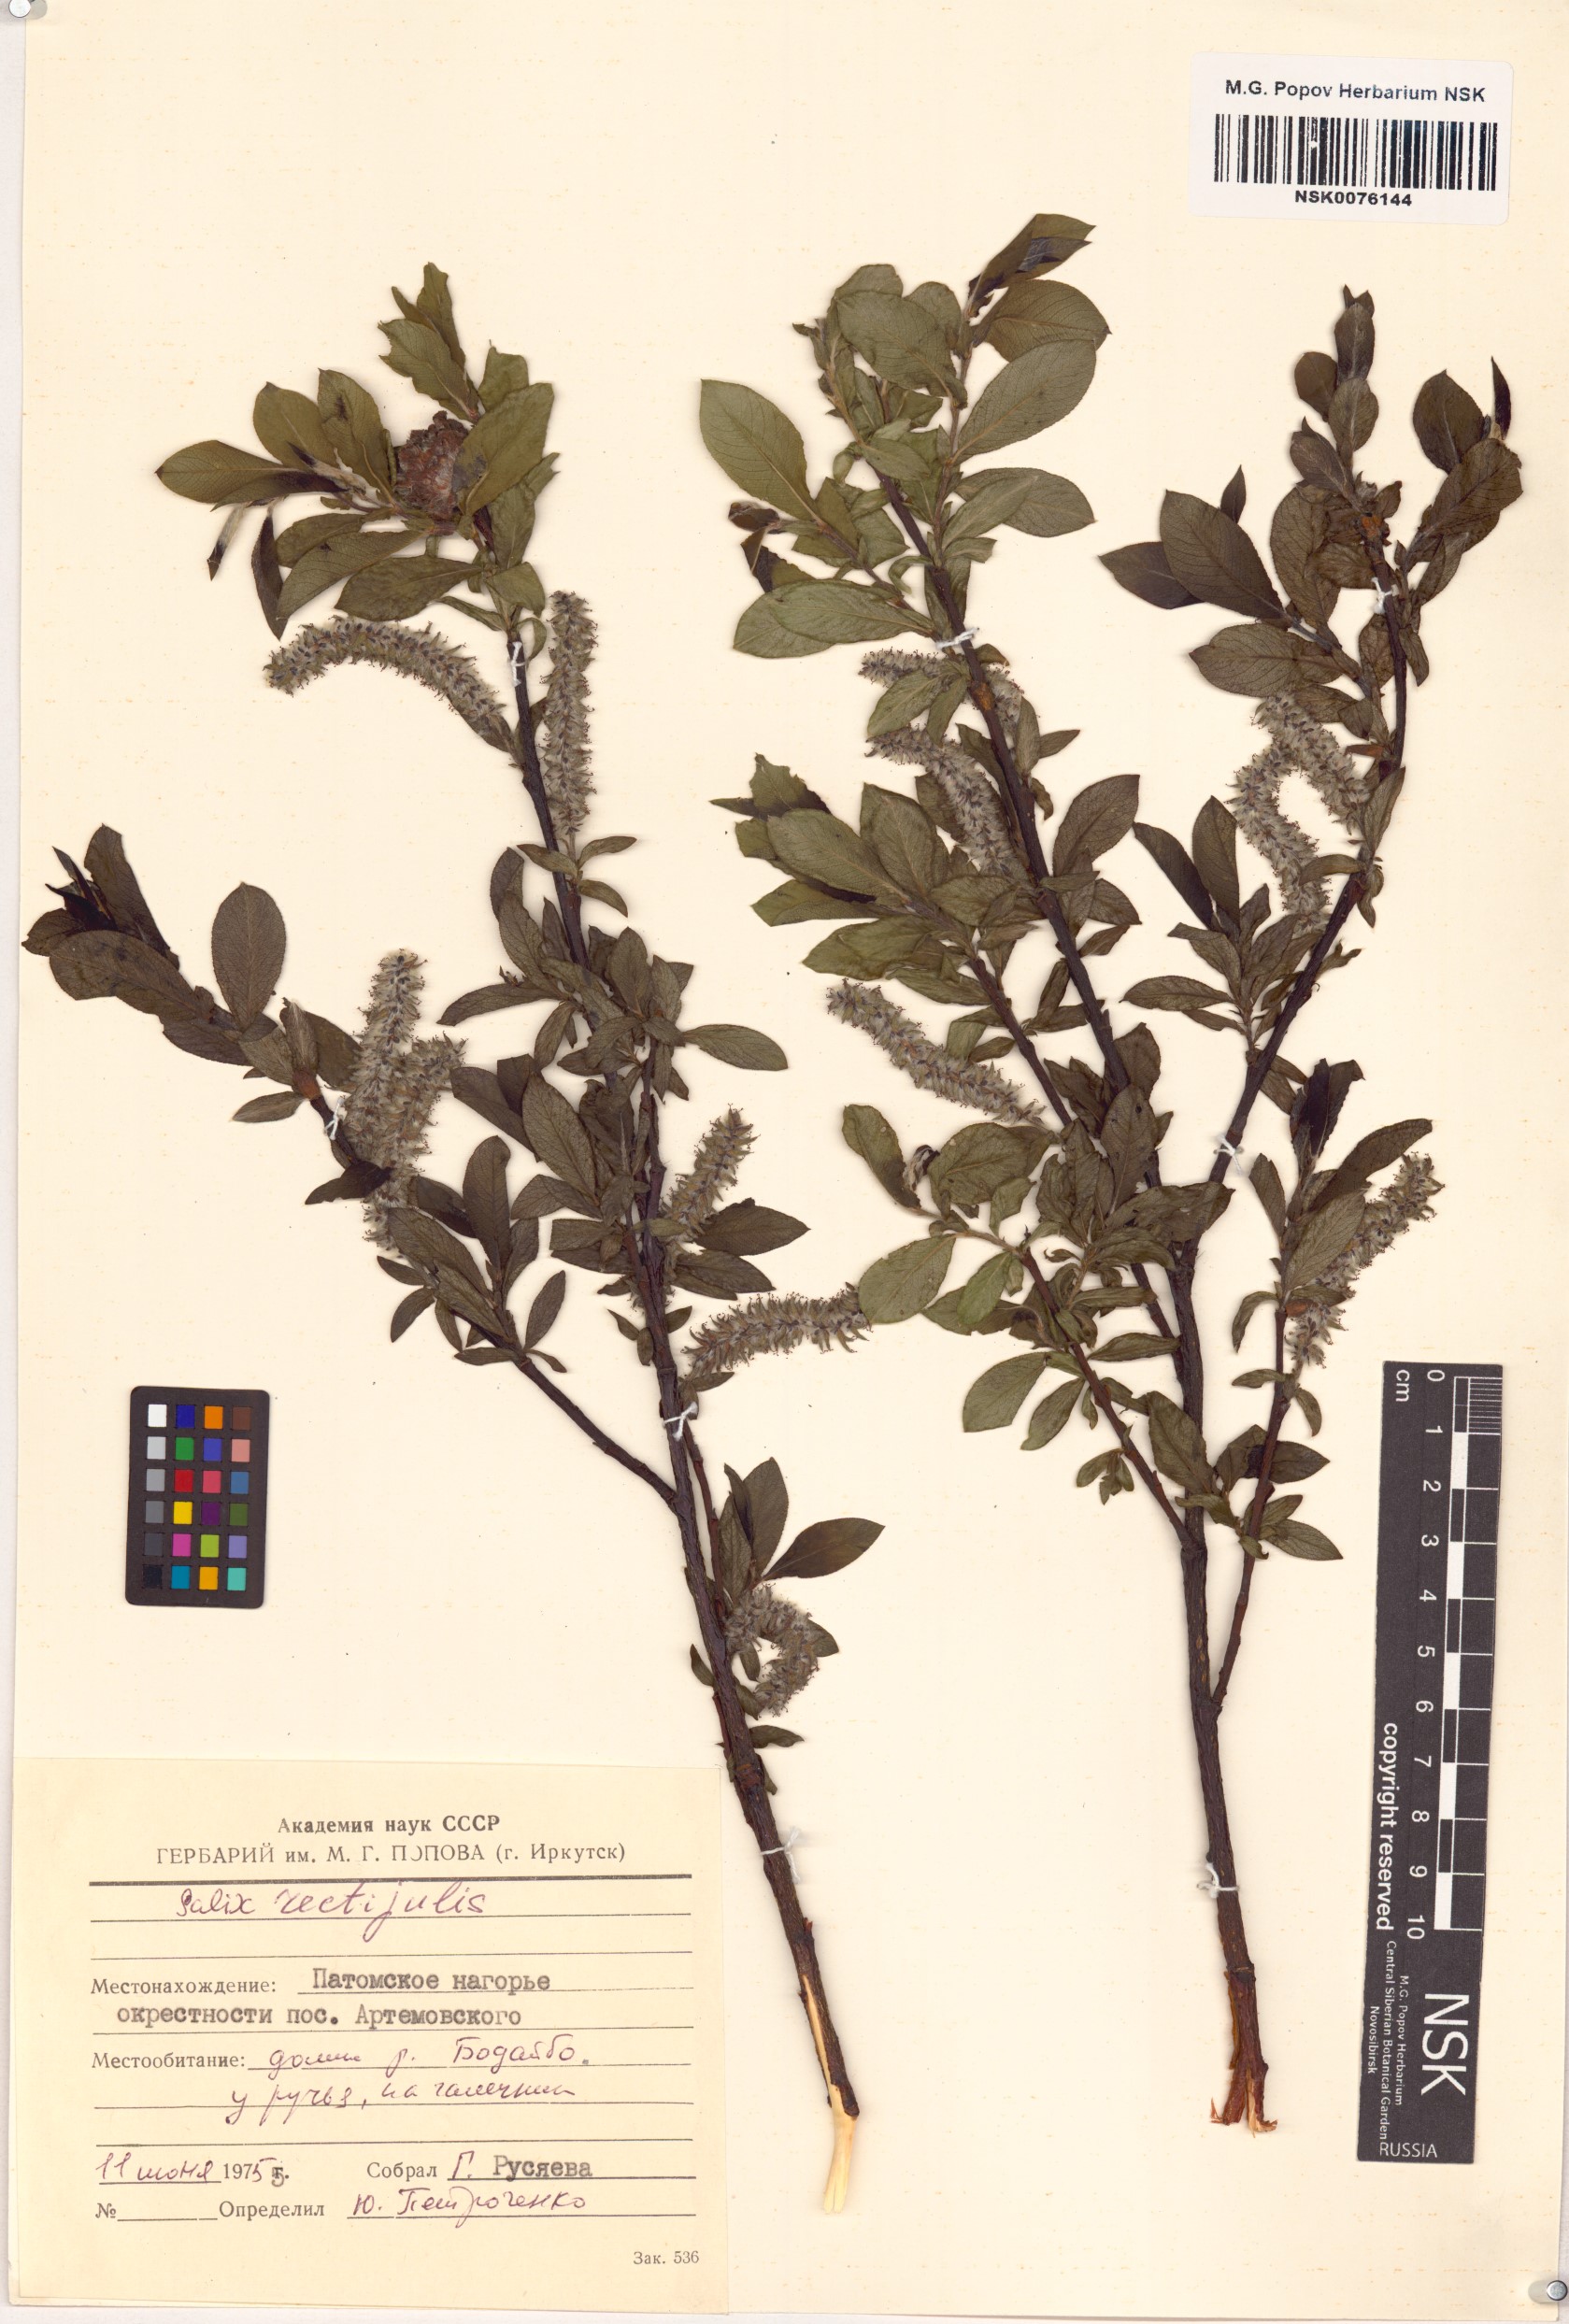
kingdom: Plantae
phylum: Tracheophyta
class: Magnoliopsida
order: Malpighiales
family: Salicaceae
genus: Salix
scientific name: Salix rectijulis
